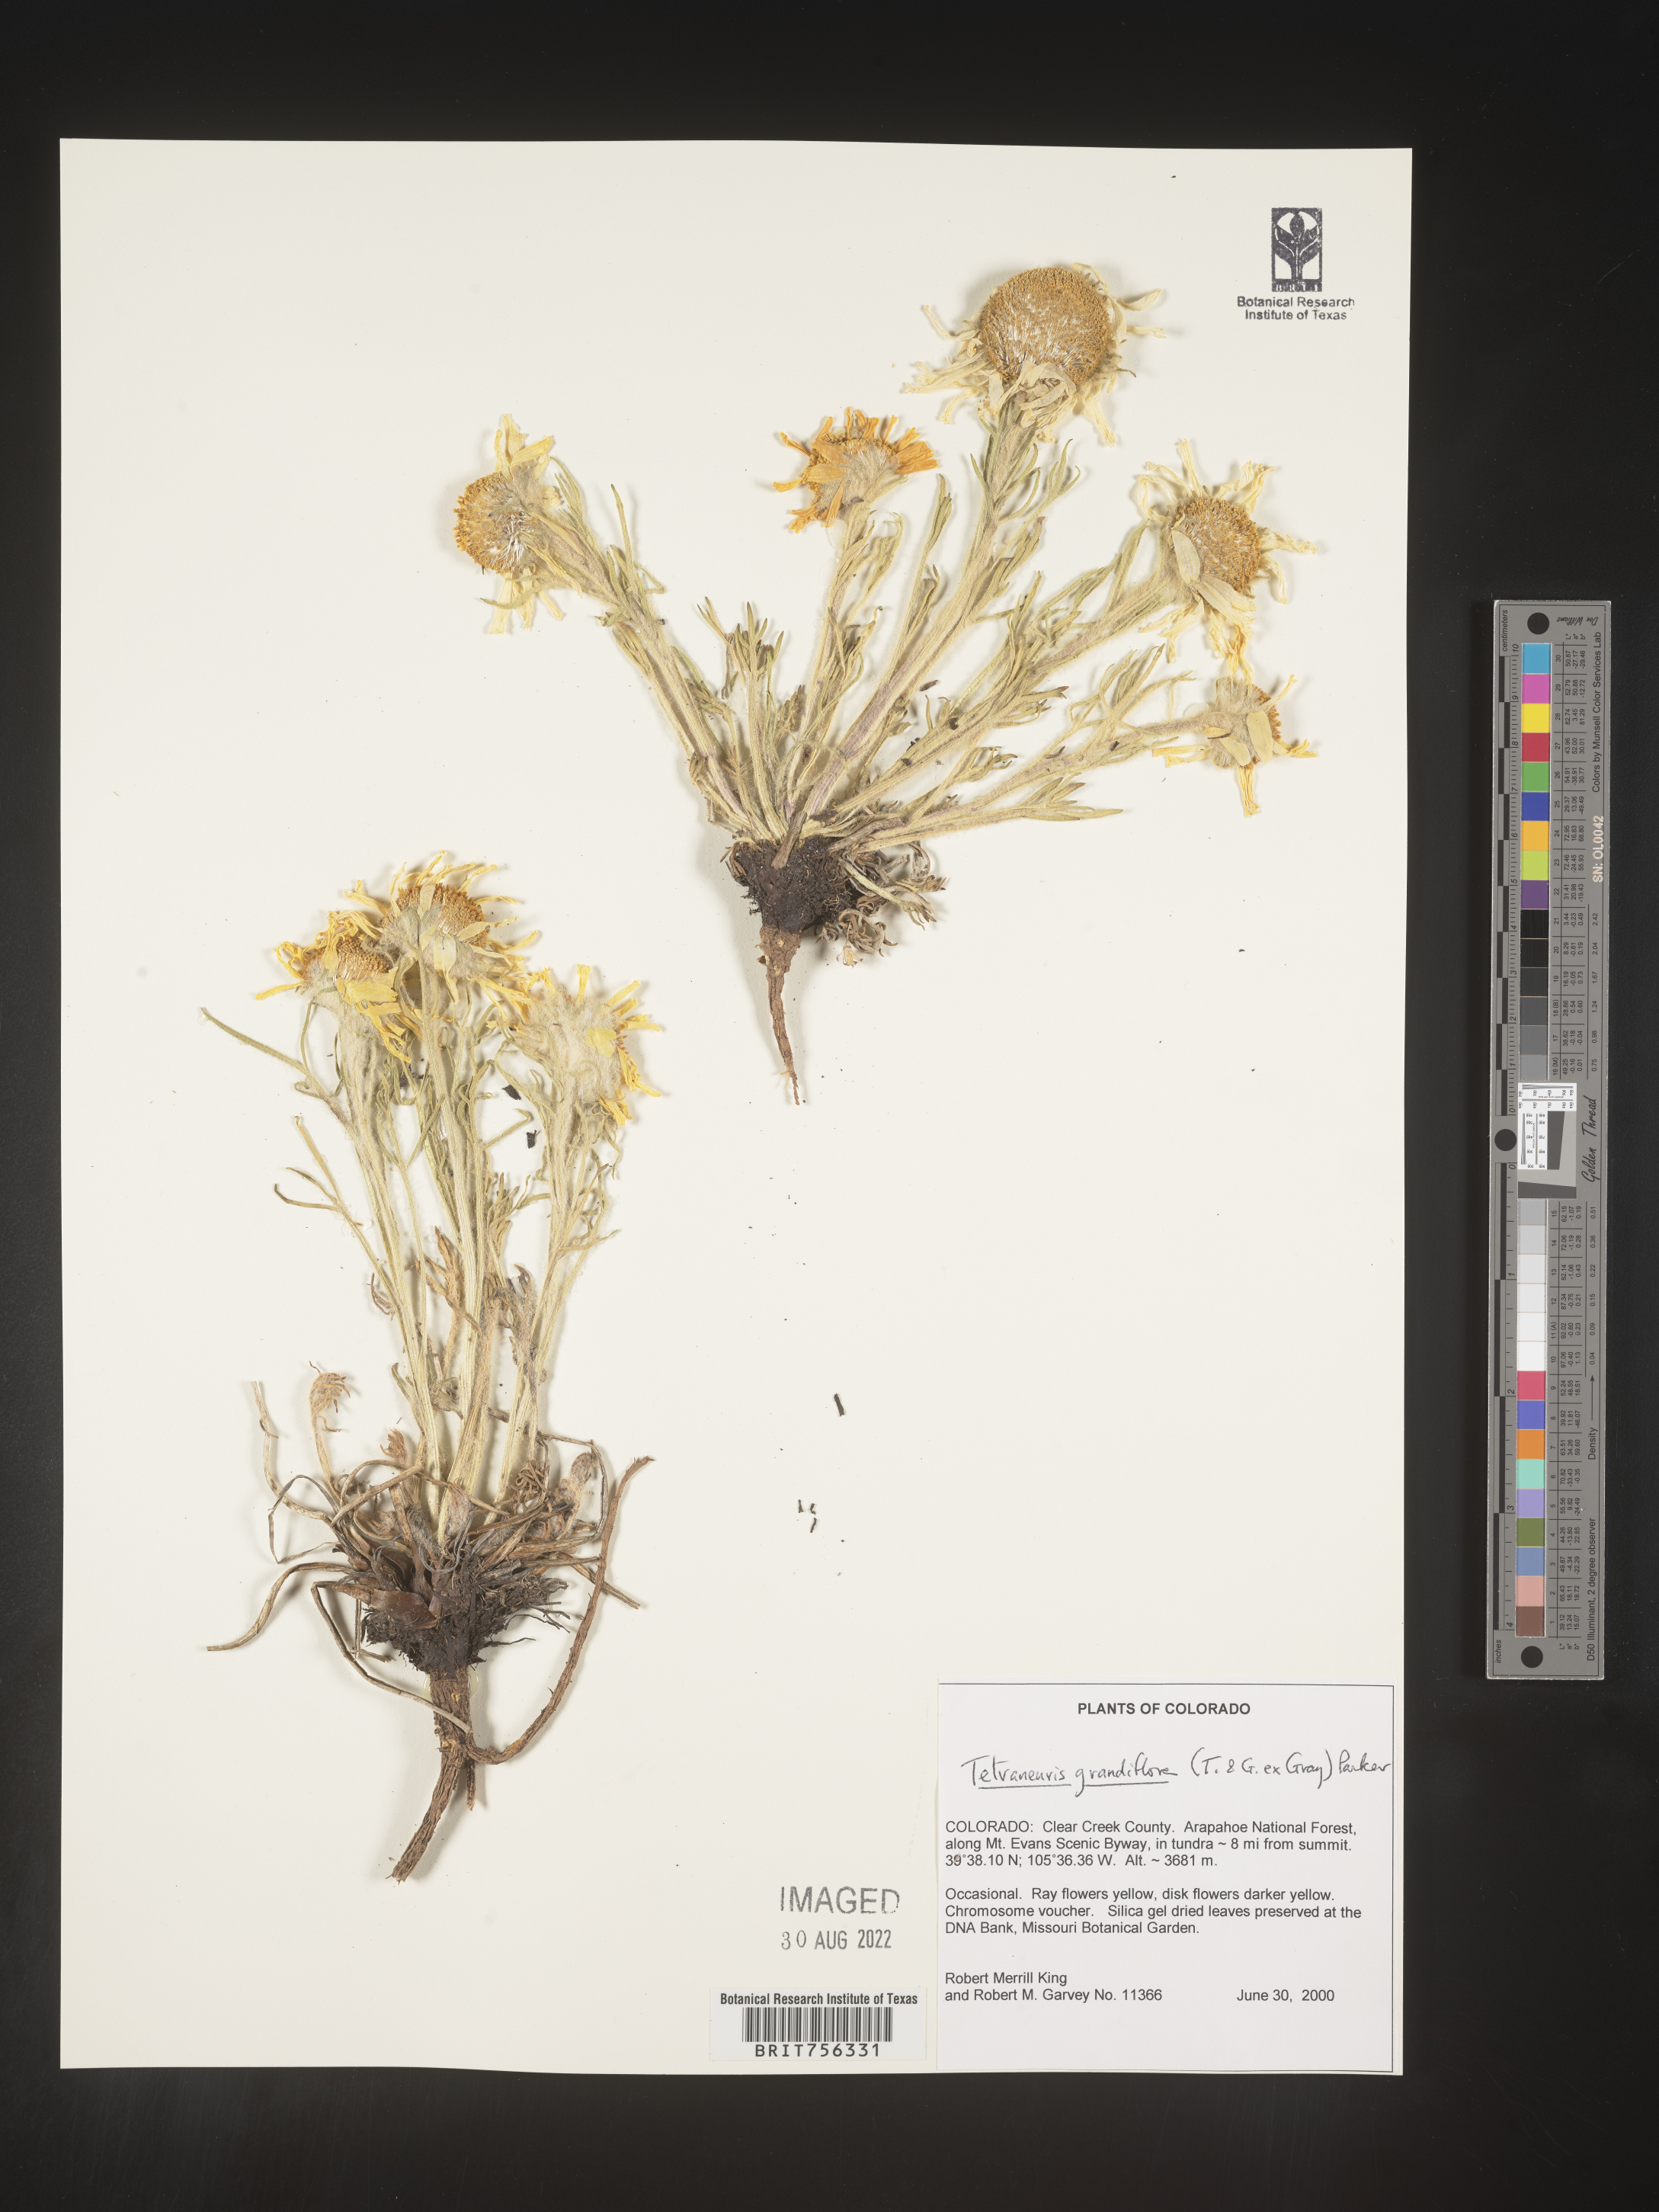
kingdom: Plantae
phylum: Tracheophyta
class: Magnoliopsida
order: Asterales
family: Asteraceae
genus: Hymenoxys
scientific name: Hymenoxys grandiflora
